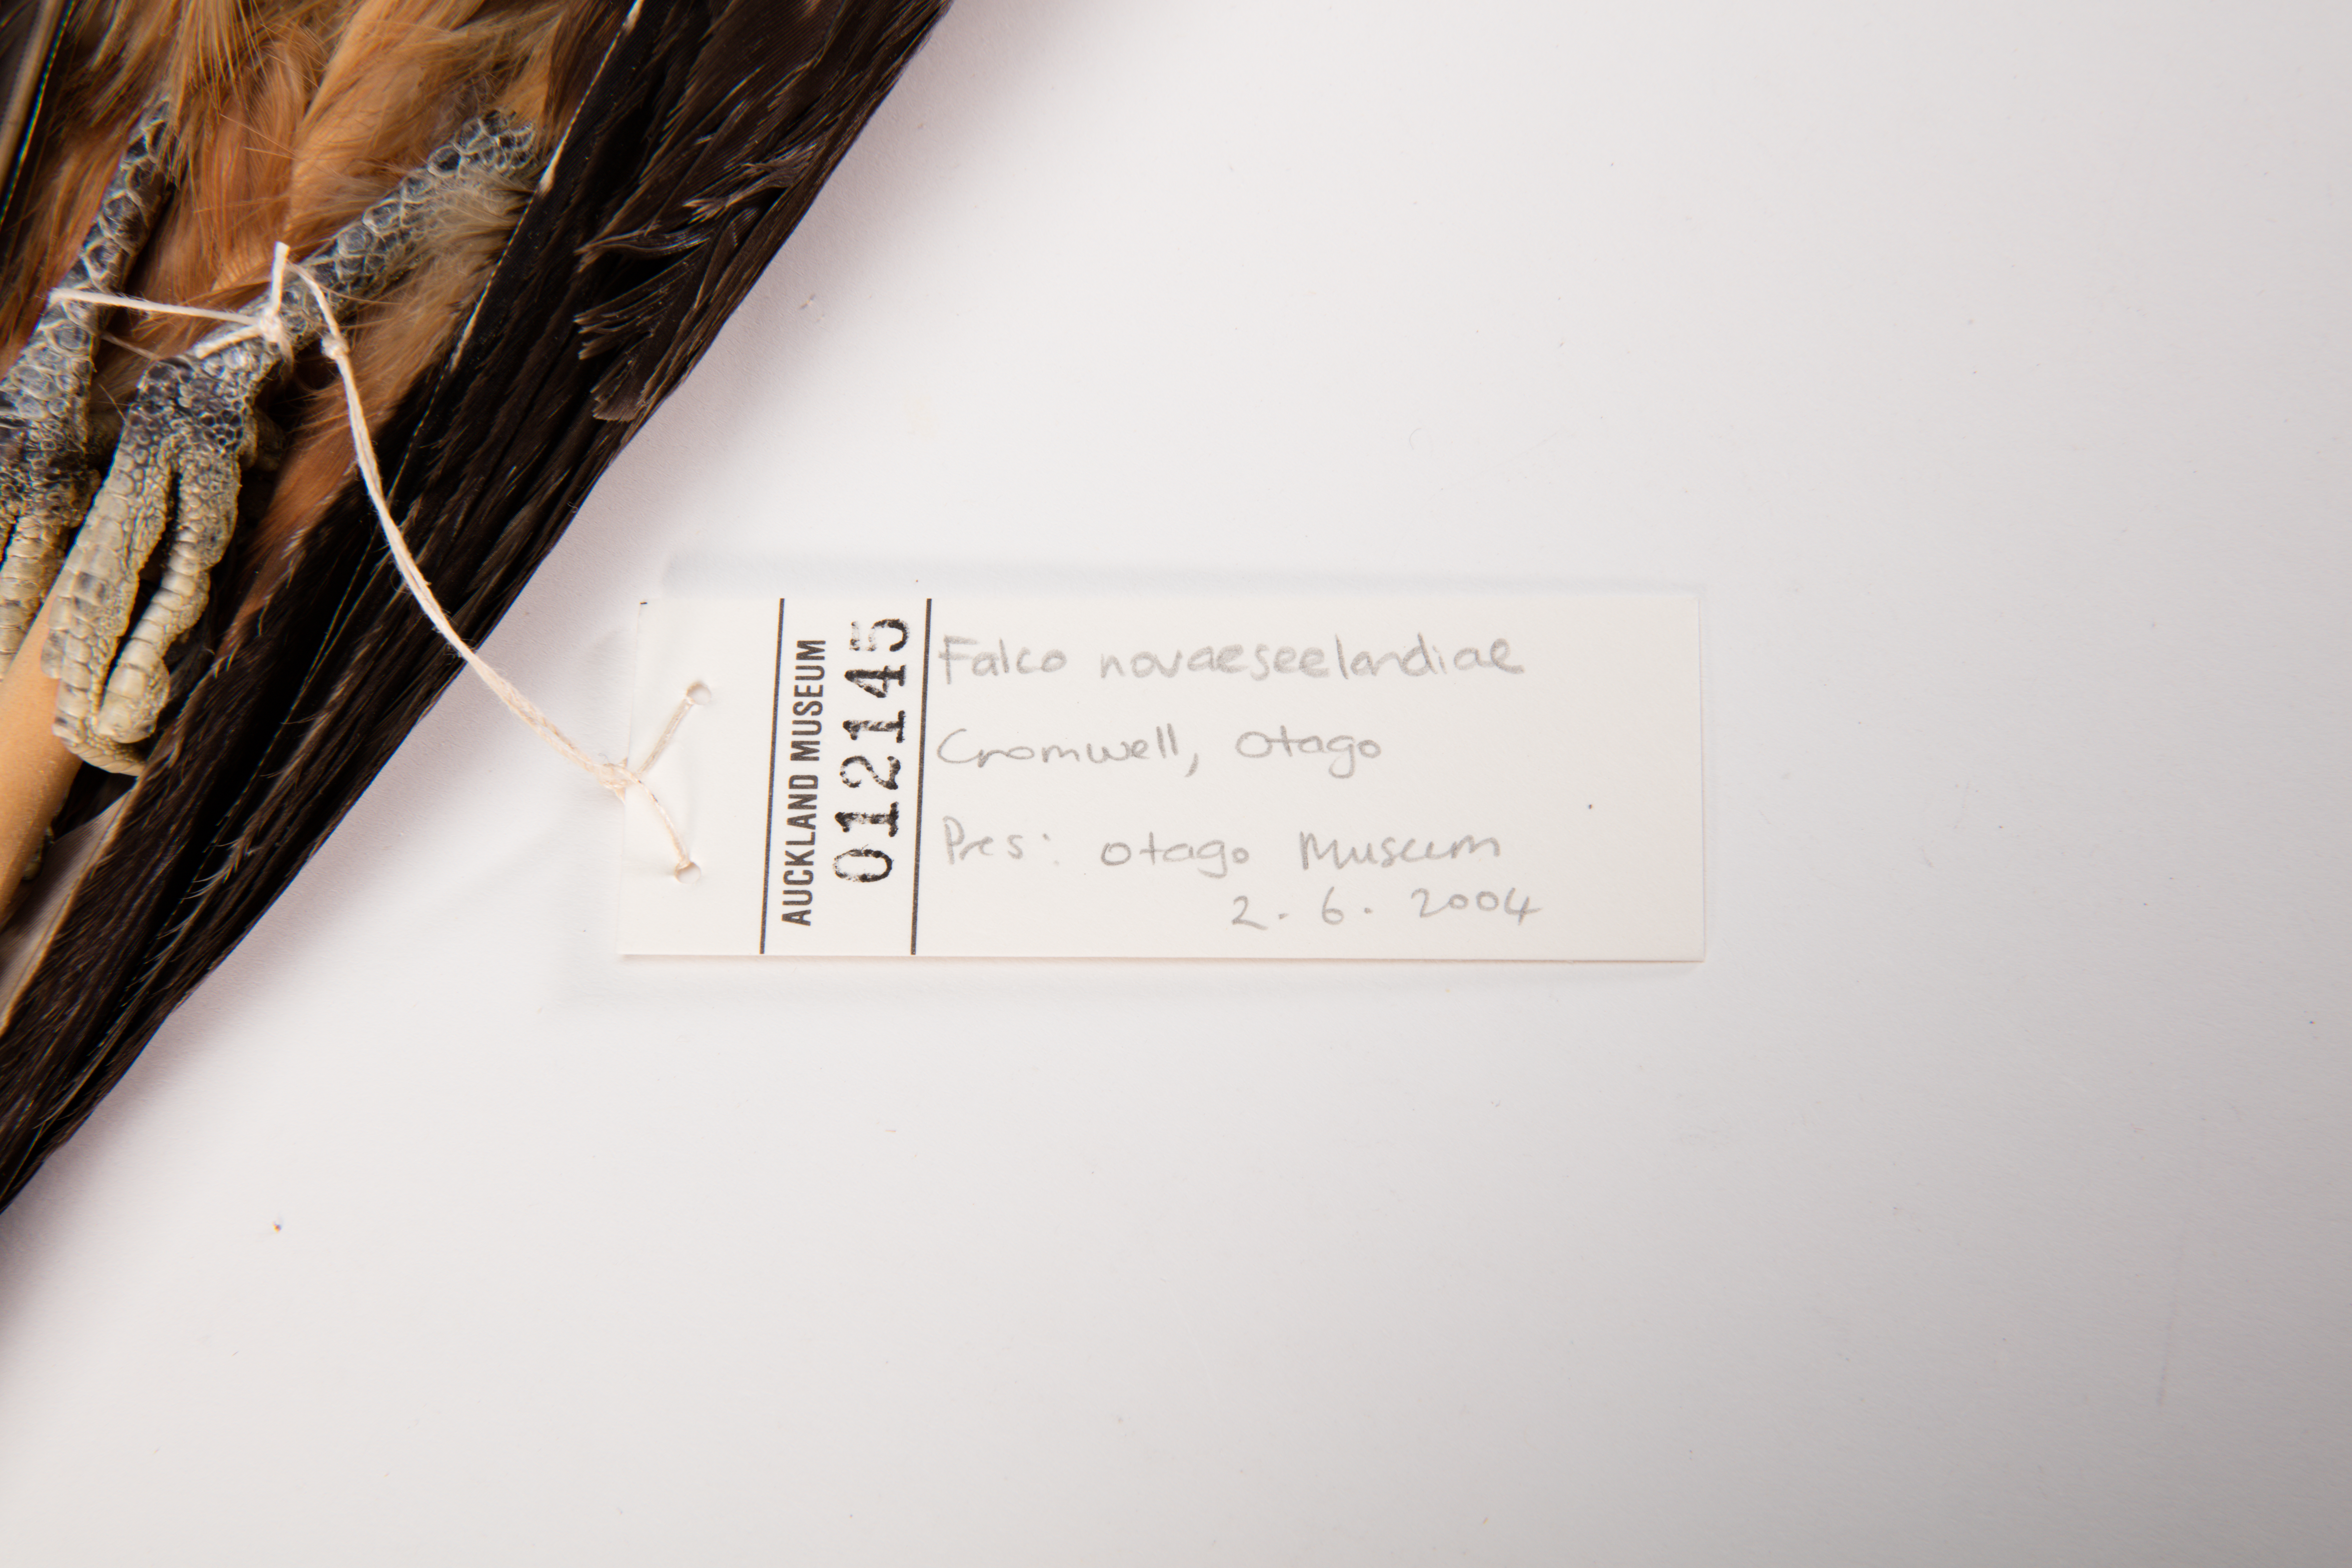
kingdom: Animalia
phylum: Chordata
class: Aves
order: Falconiformes
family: Falconidae
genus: Falco
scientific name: Falco novaeseelandiae
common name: New zealand falcon
